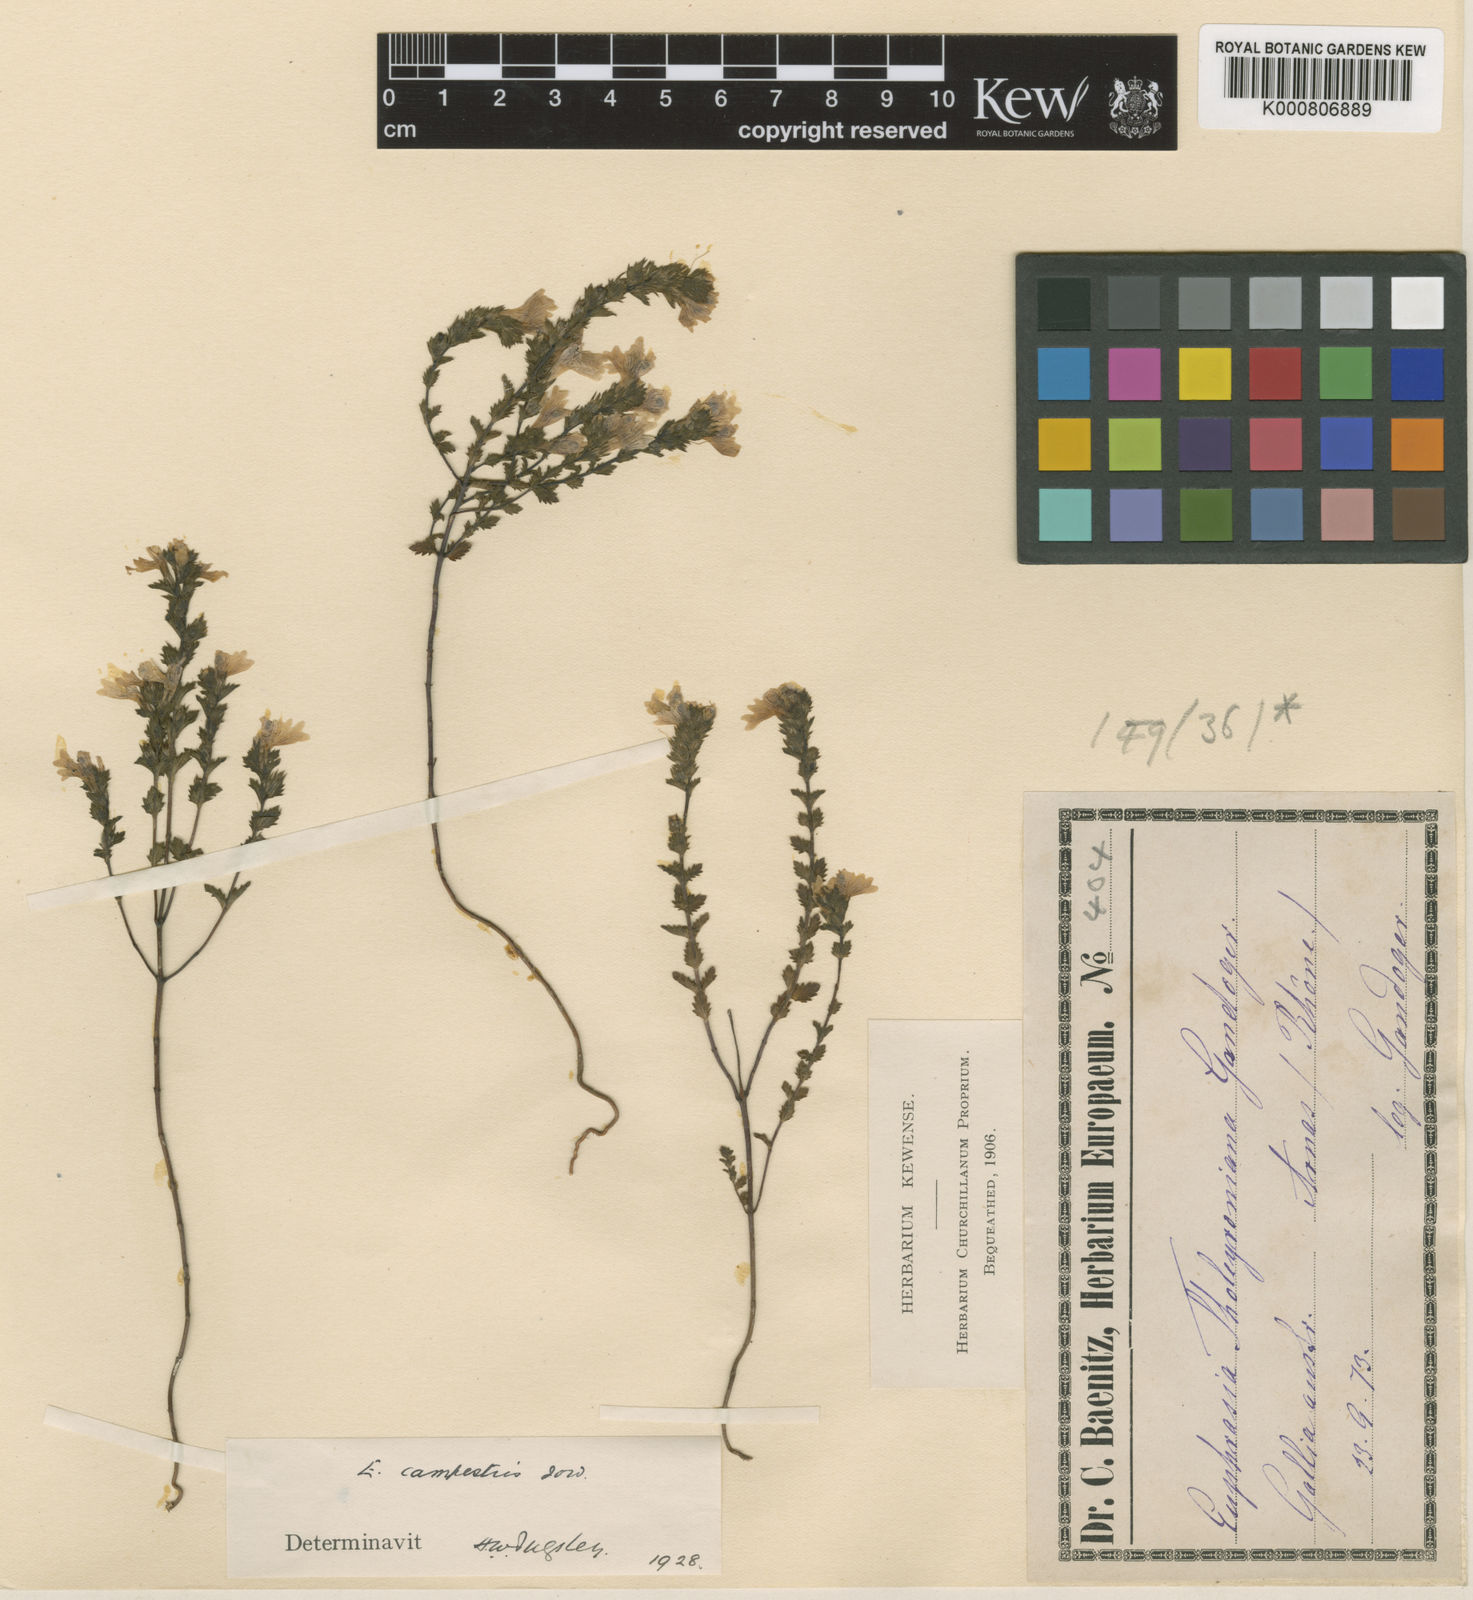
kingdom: Plantae
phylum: Tracheophyta
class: Magnoliopsida
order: Lamiales
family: Orobanchaceae
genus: Euphrasia
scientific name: Euphrasia officinalis
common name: Eyebright
